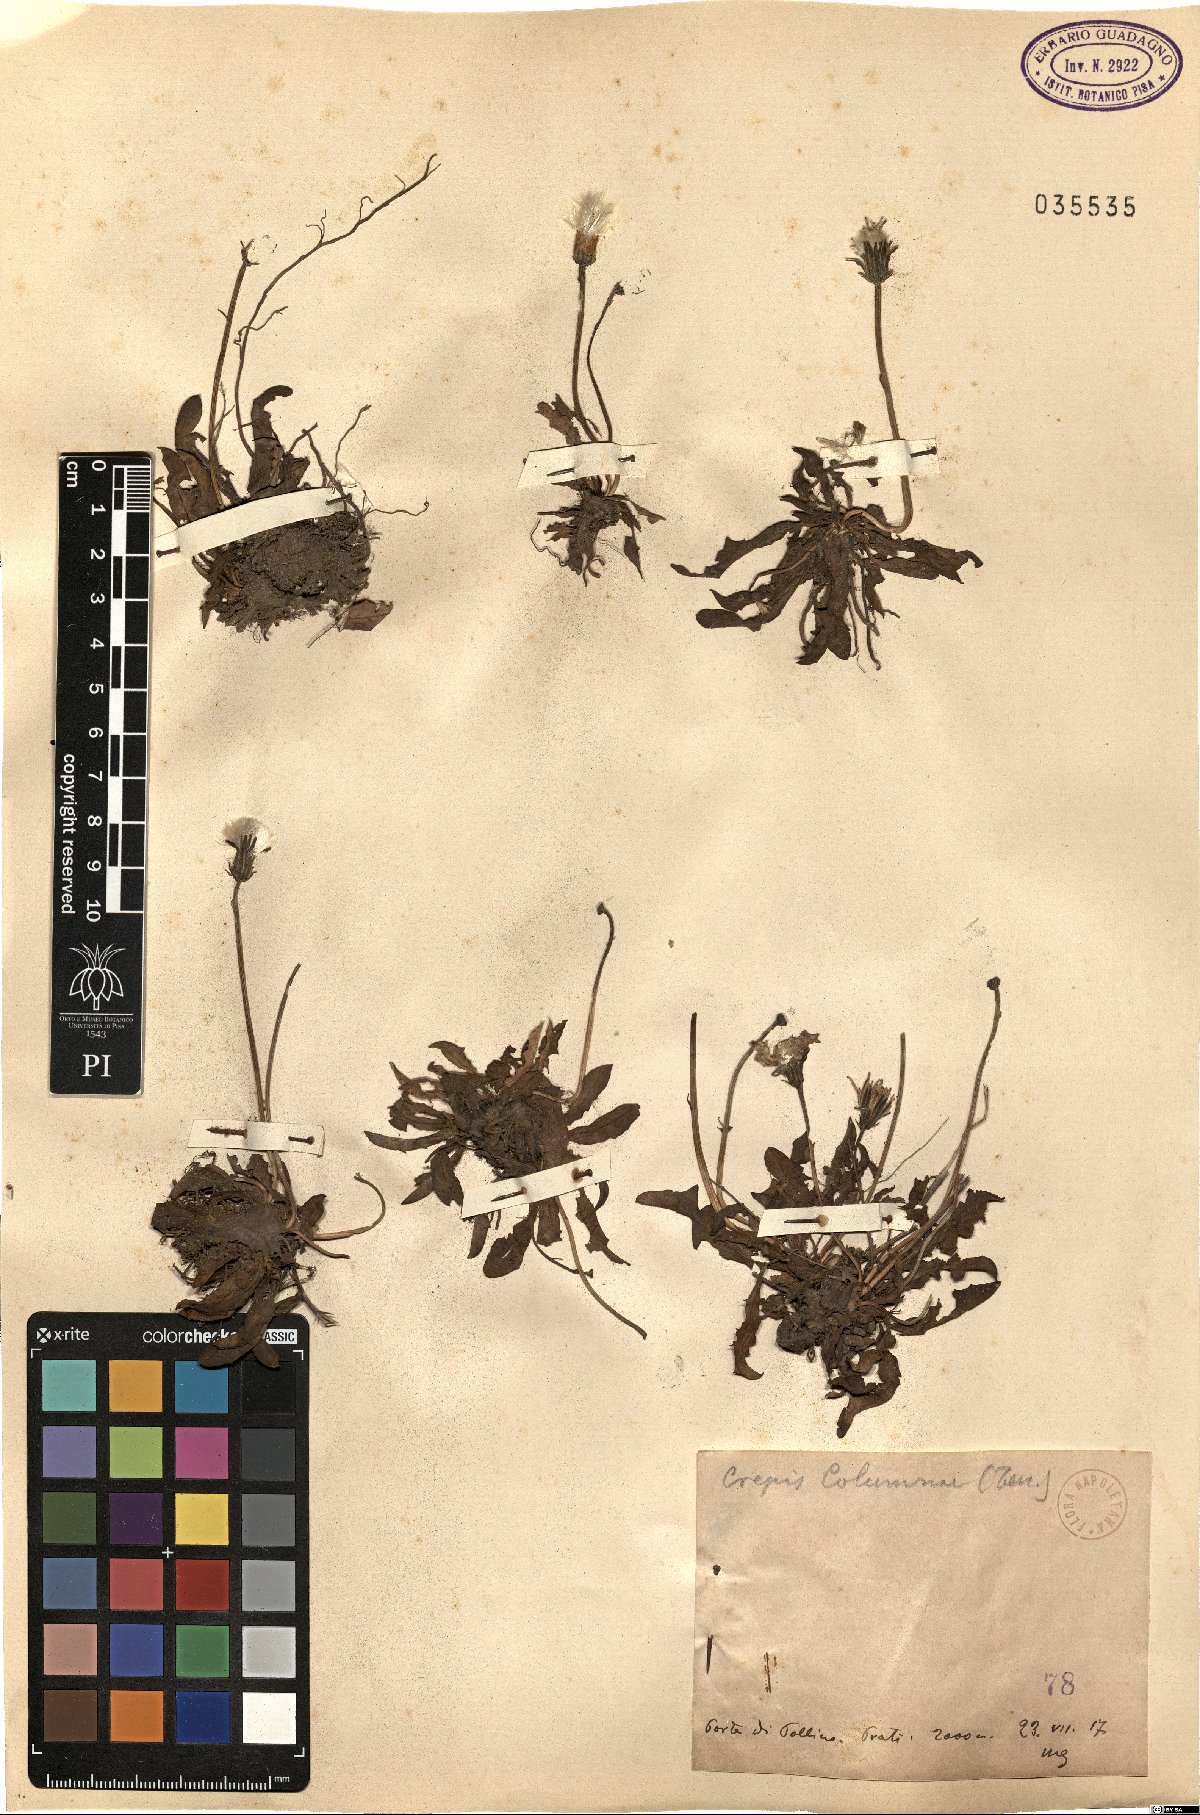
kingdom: Plantae
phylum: Tracheophyta
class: Magnoliopsida
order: Asterales
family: Asteraceae
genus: Crepis
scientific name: Crepis aurea
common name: Golden hawk's-beard
